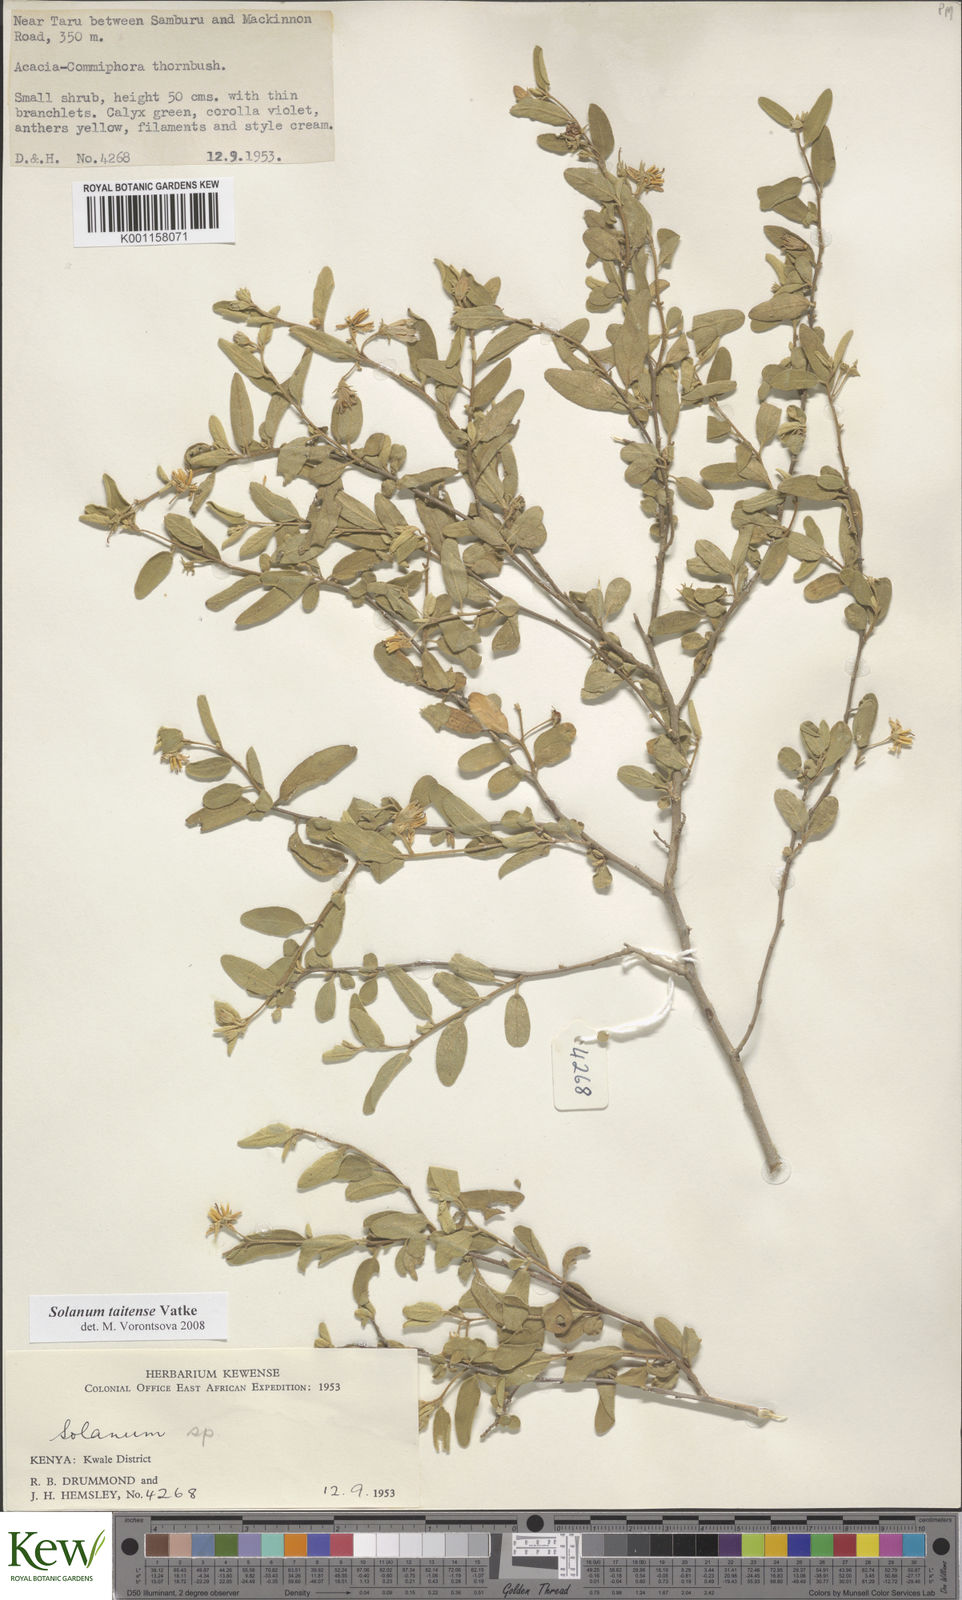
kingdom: Plantae
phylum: Tracheophyta
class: Magnoliopsida
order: Solanales
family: Solanaceae
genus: Solanum
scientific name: Solanum taitense
